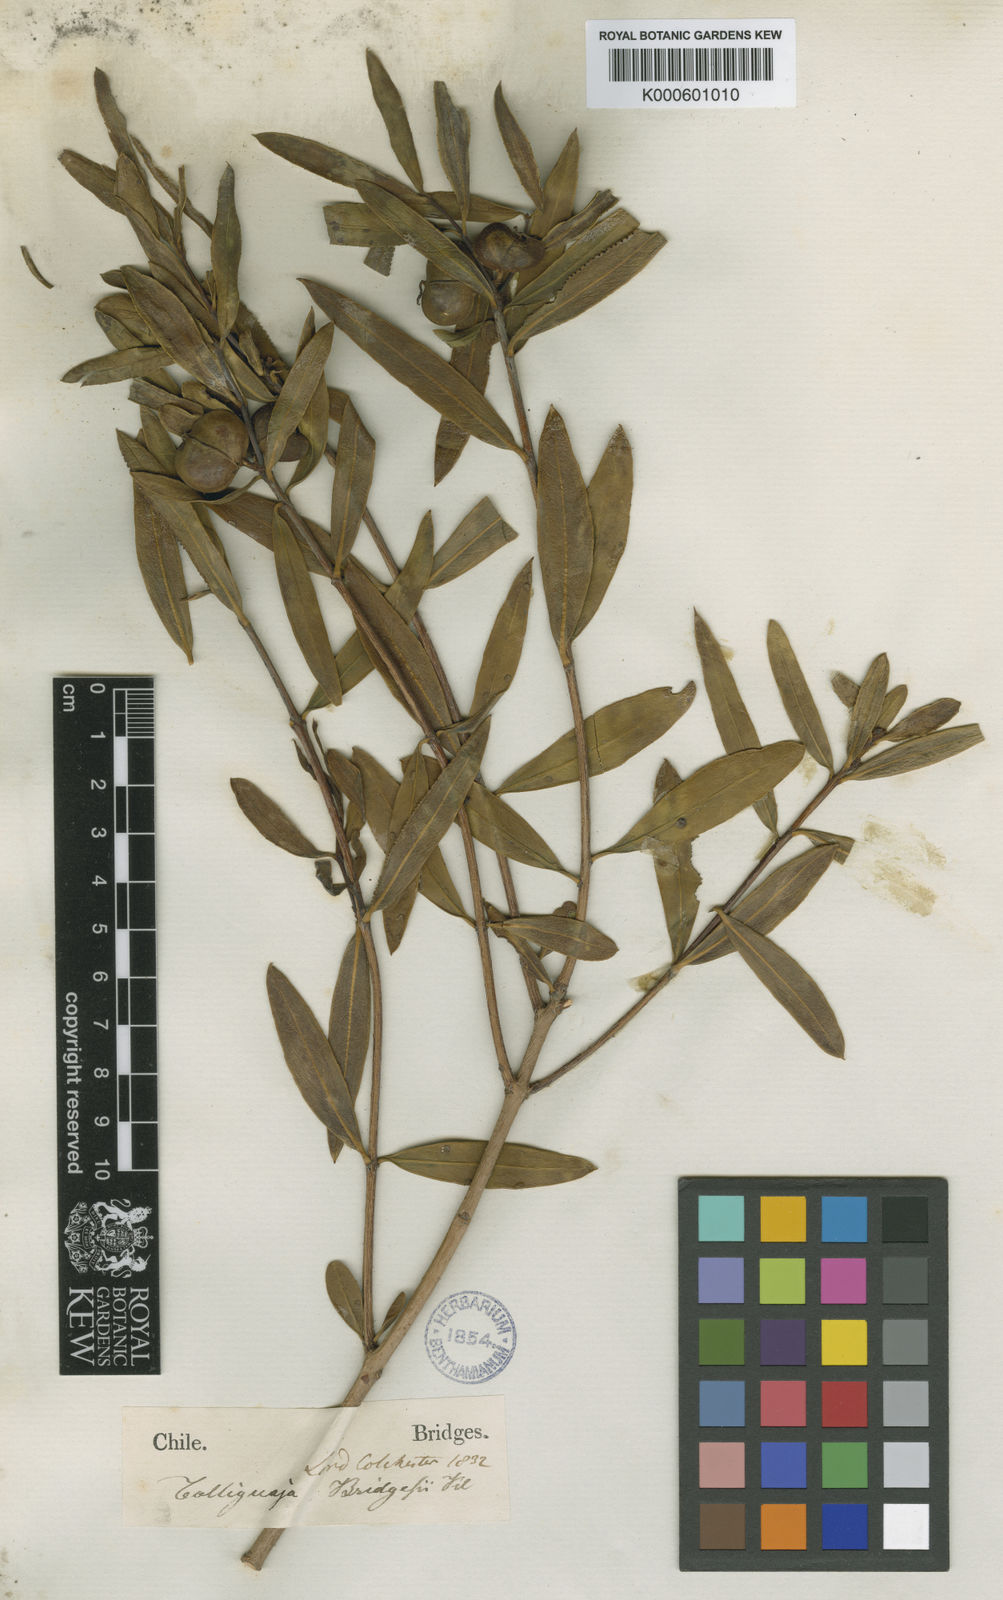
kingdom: Plantae
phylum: Tracheophyta
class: Magnoliopsida
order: Malpighiales
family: Euphorbiaceae
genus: Colliguaja
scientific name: Colliguaja
